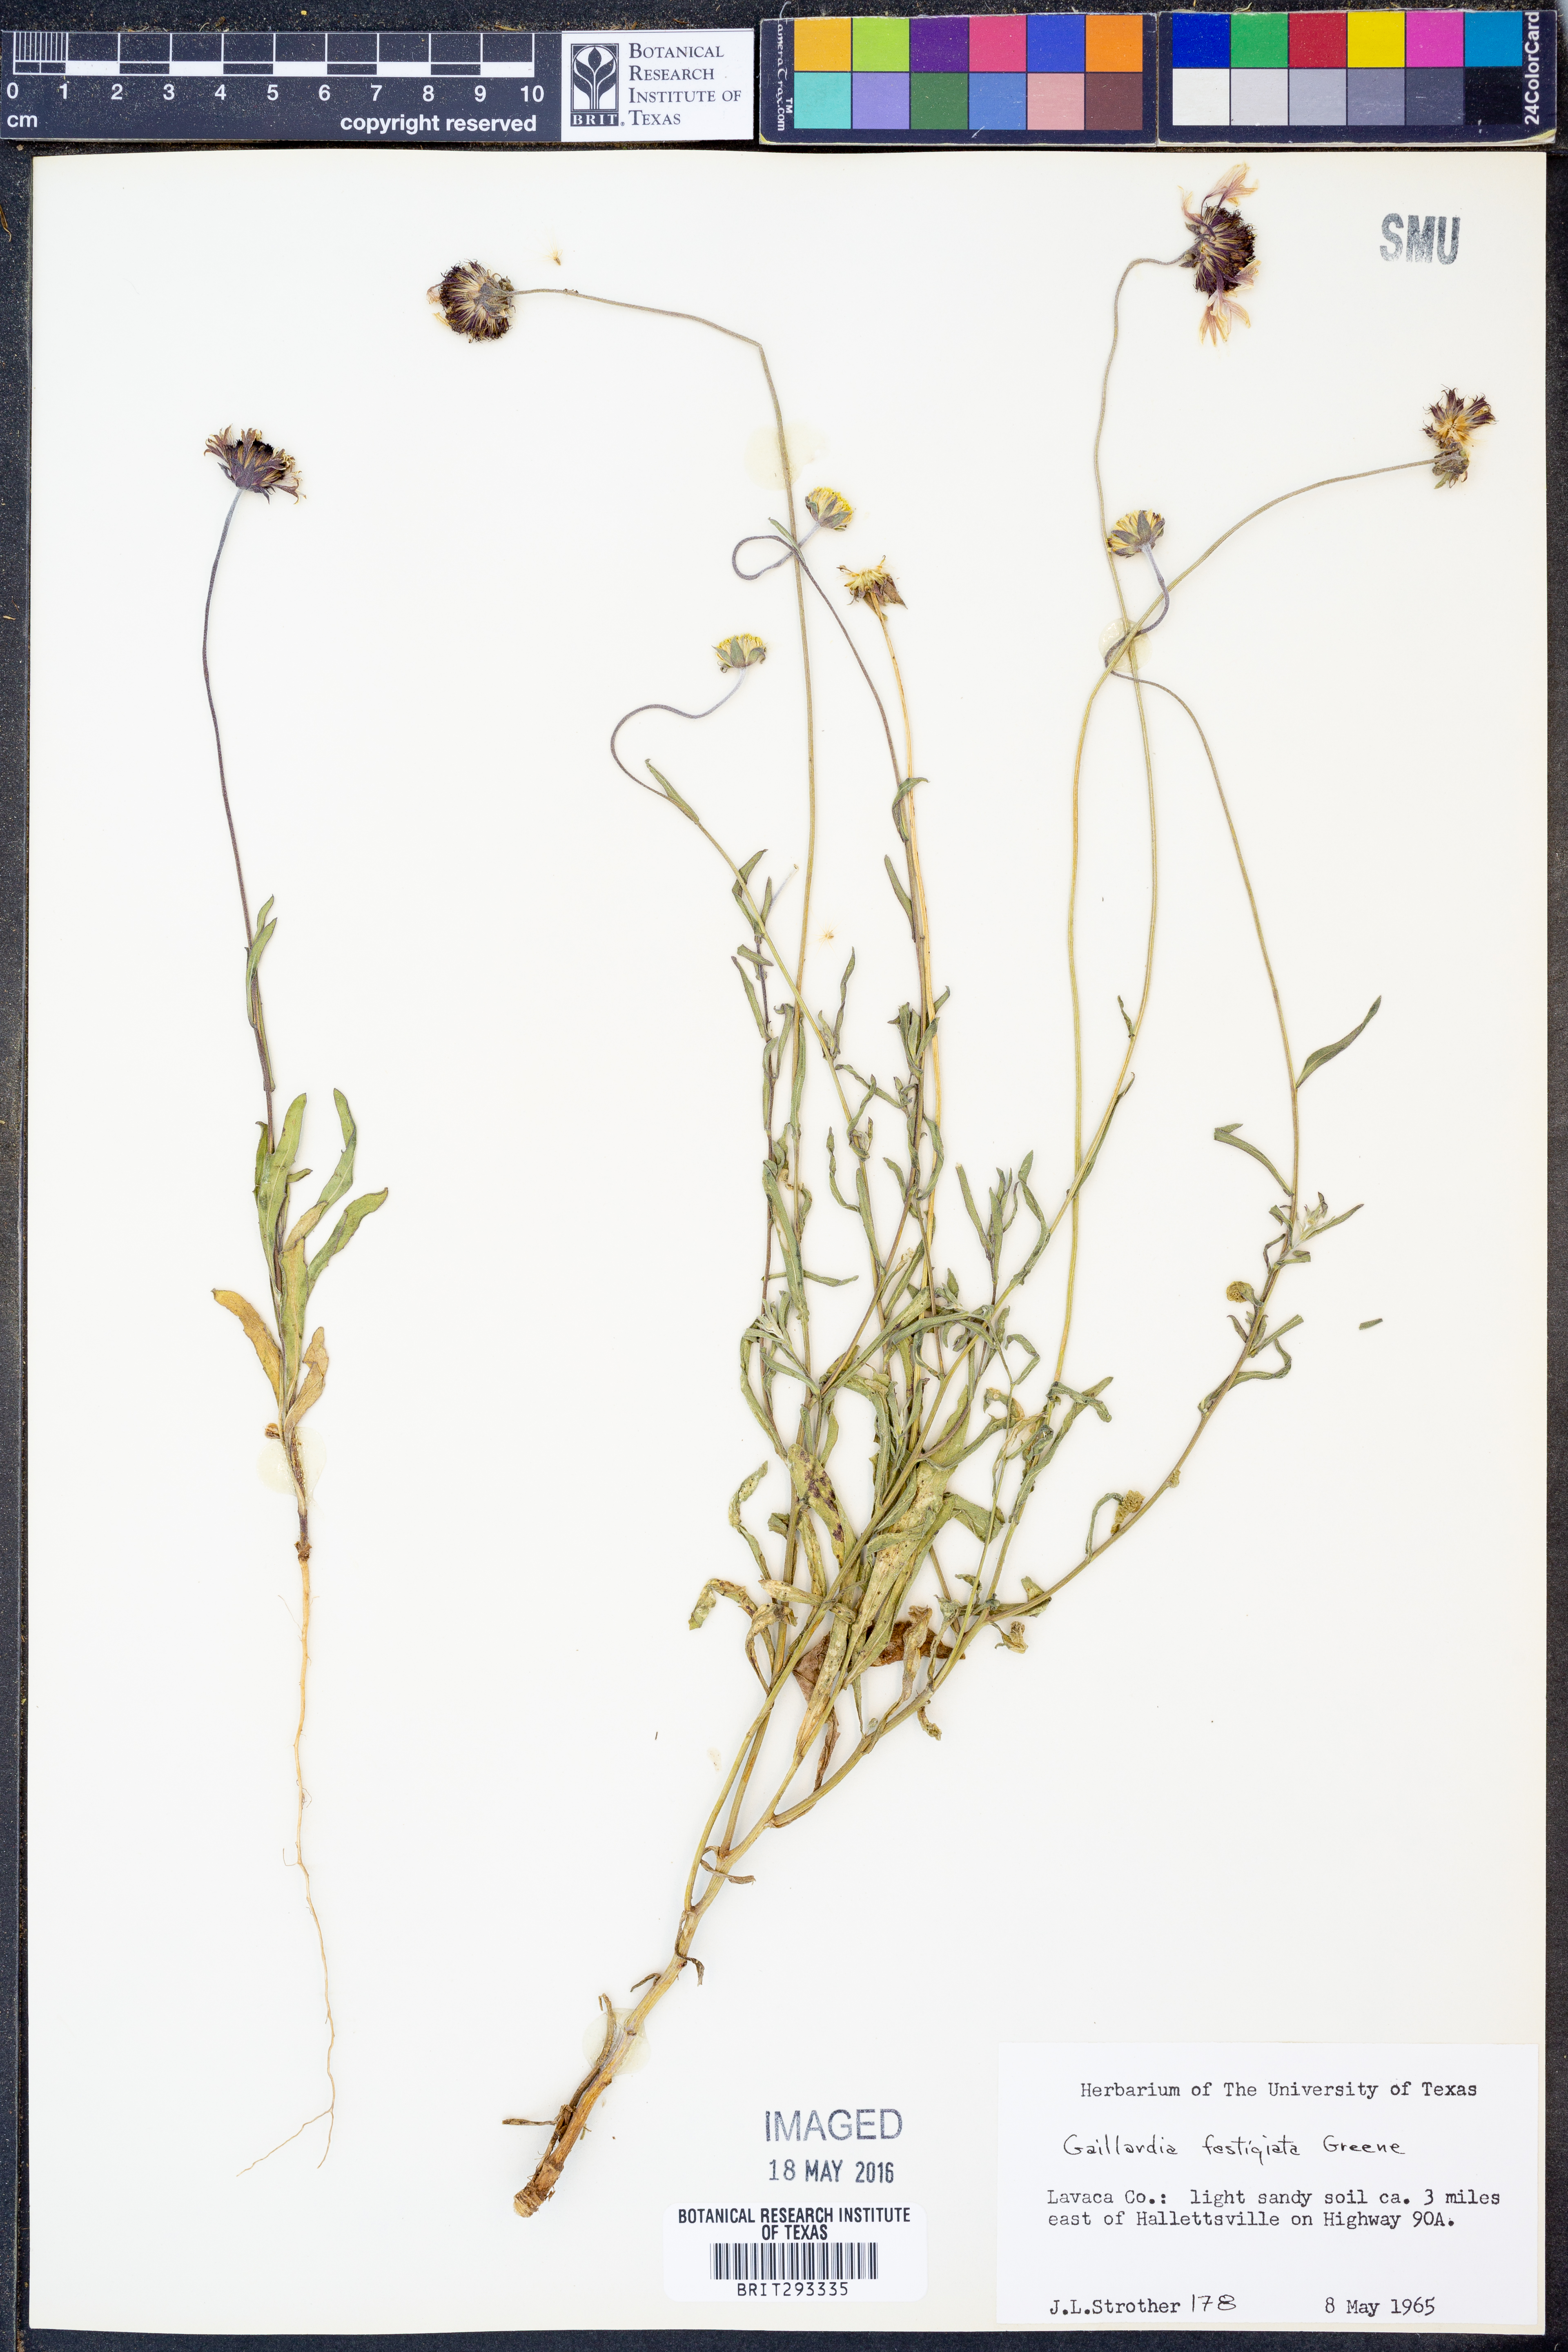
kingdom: Plantae
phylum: Tracheophyta
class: Magnoliopsida
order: Asterales
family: Asteraceae
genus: Gaillardia
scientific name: Gaillardia aestivalis
